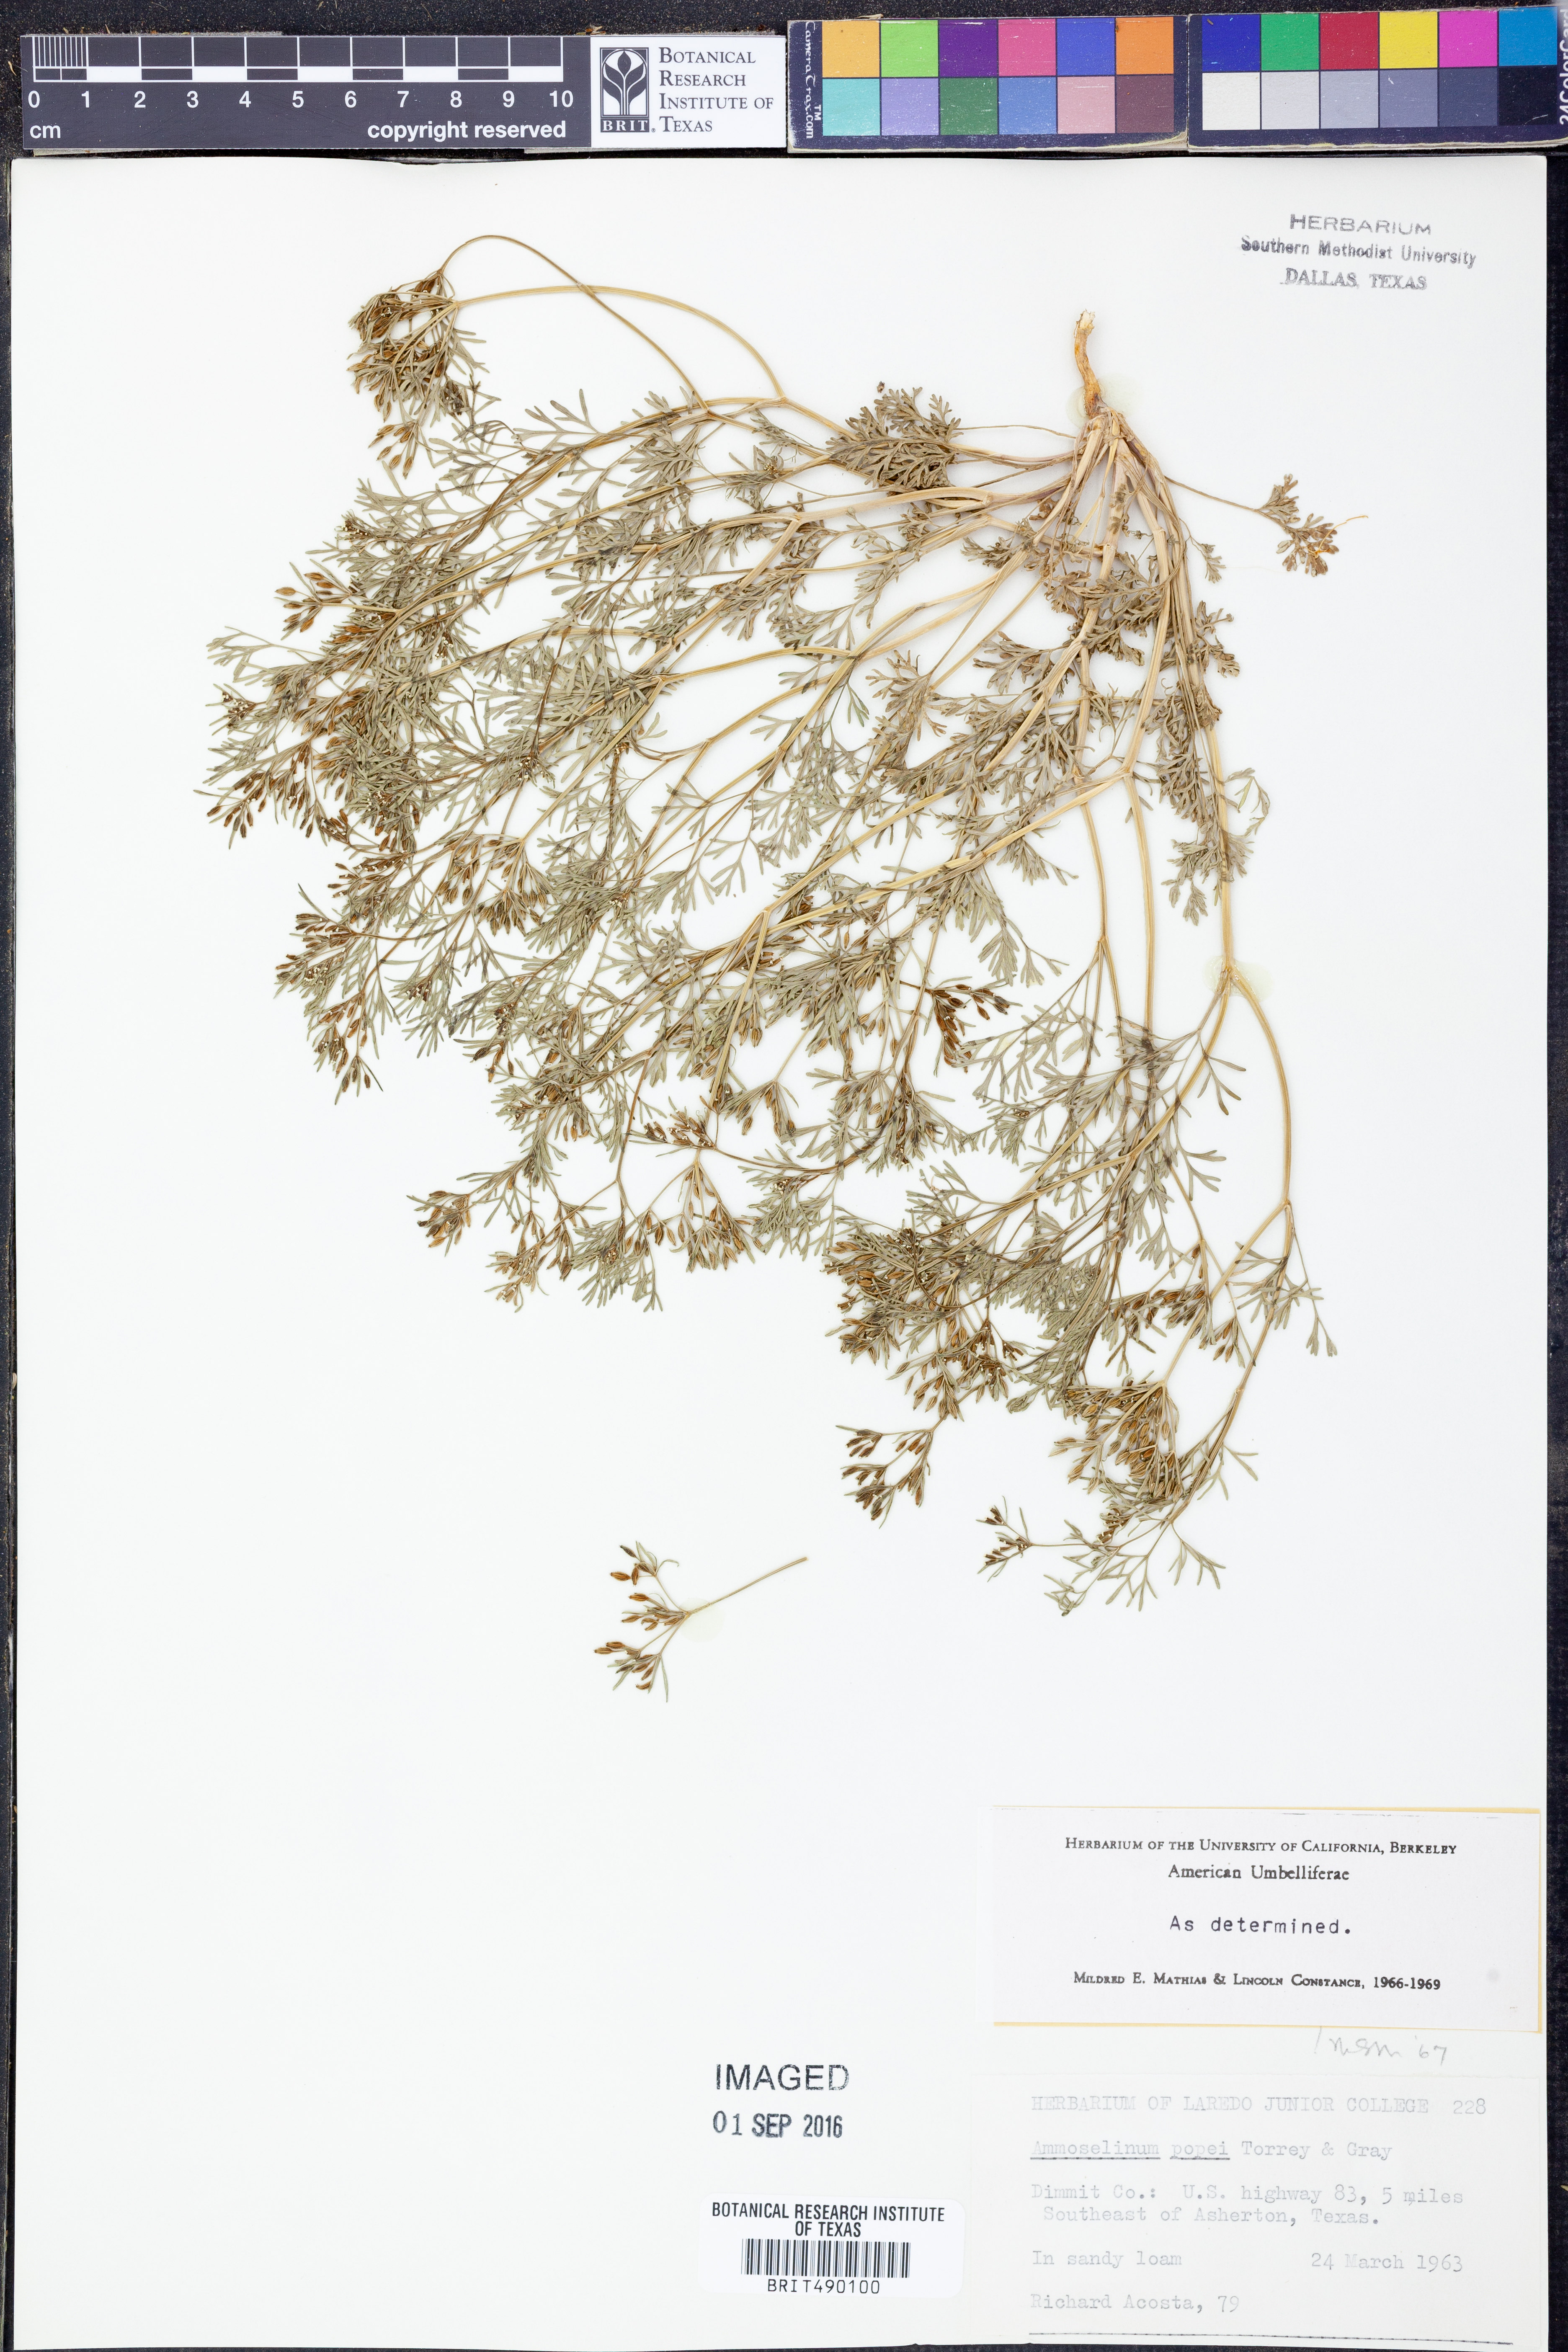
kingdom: Plantae
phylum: Tracheophyta
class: Magnoliopsida
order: Apiales
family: Apiaceae
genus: Ammoselinum
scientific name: Ammoselinum popei
